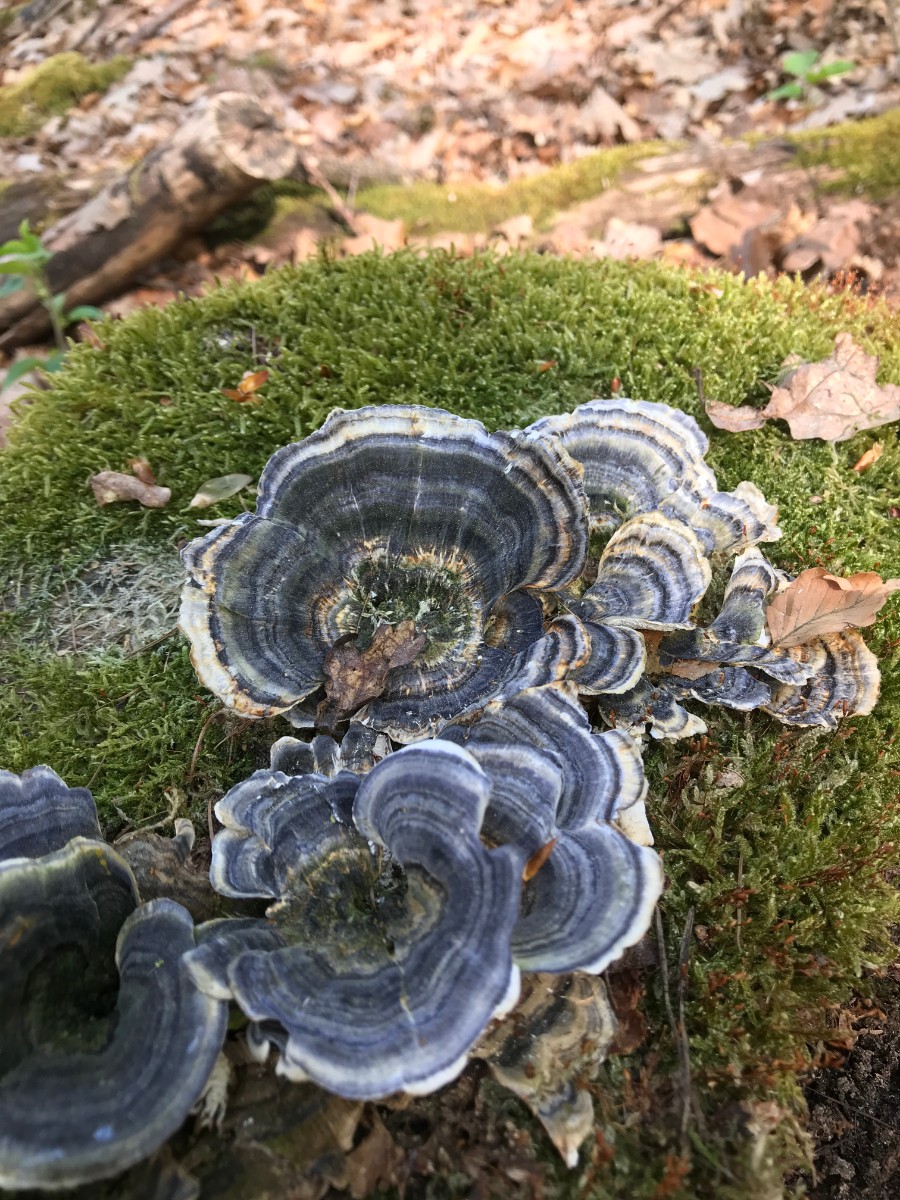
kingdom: Fungi
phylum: Basidiomycota
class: Agaricomycetes
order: Polyporales
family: Polyporaceae
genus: Trametes
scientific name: Trametes versicolor
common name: broget læderporesvamp
